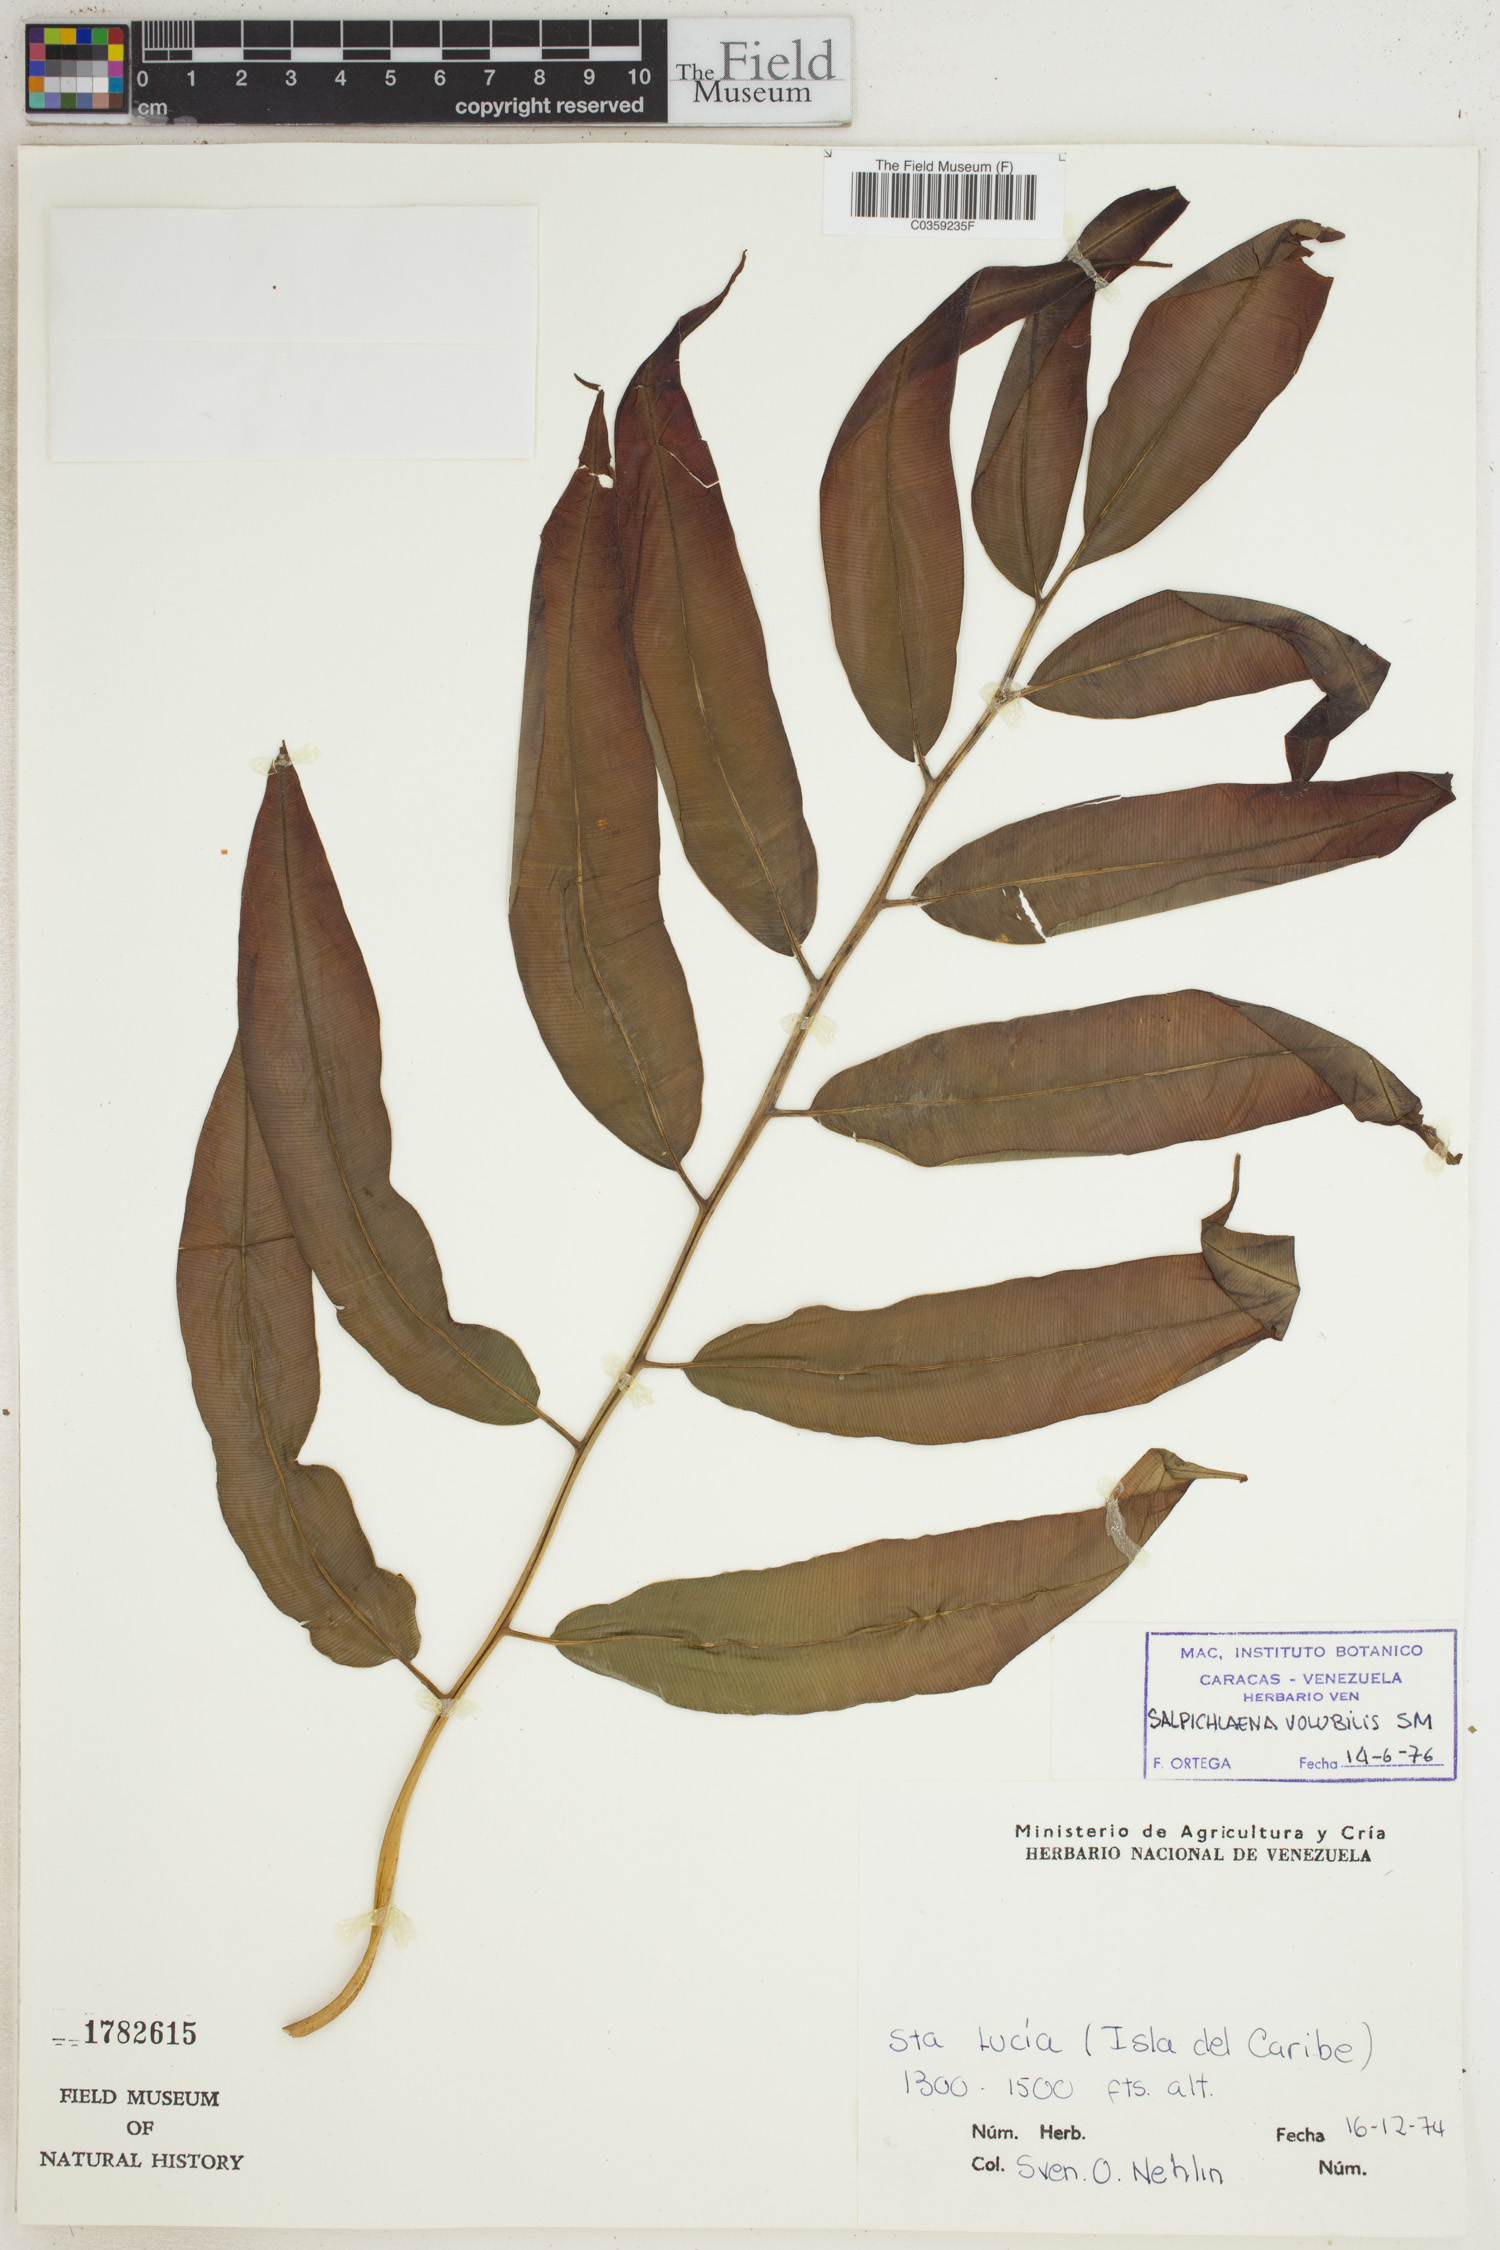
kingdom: Plantae
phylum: Tracheophyta
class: Polypodiopsida
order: Polypodiales
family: Blechnaceae
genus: Salpichlaena
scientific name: Salpichlaena volubilis
